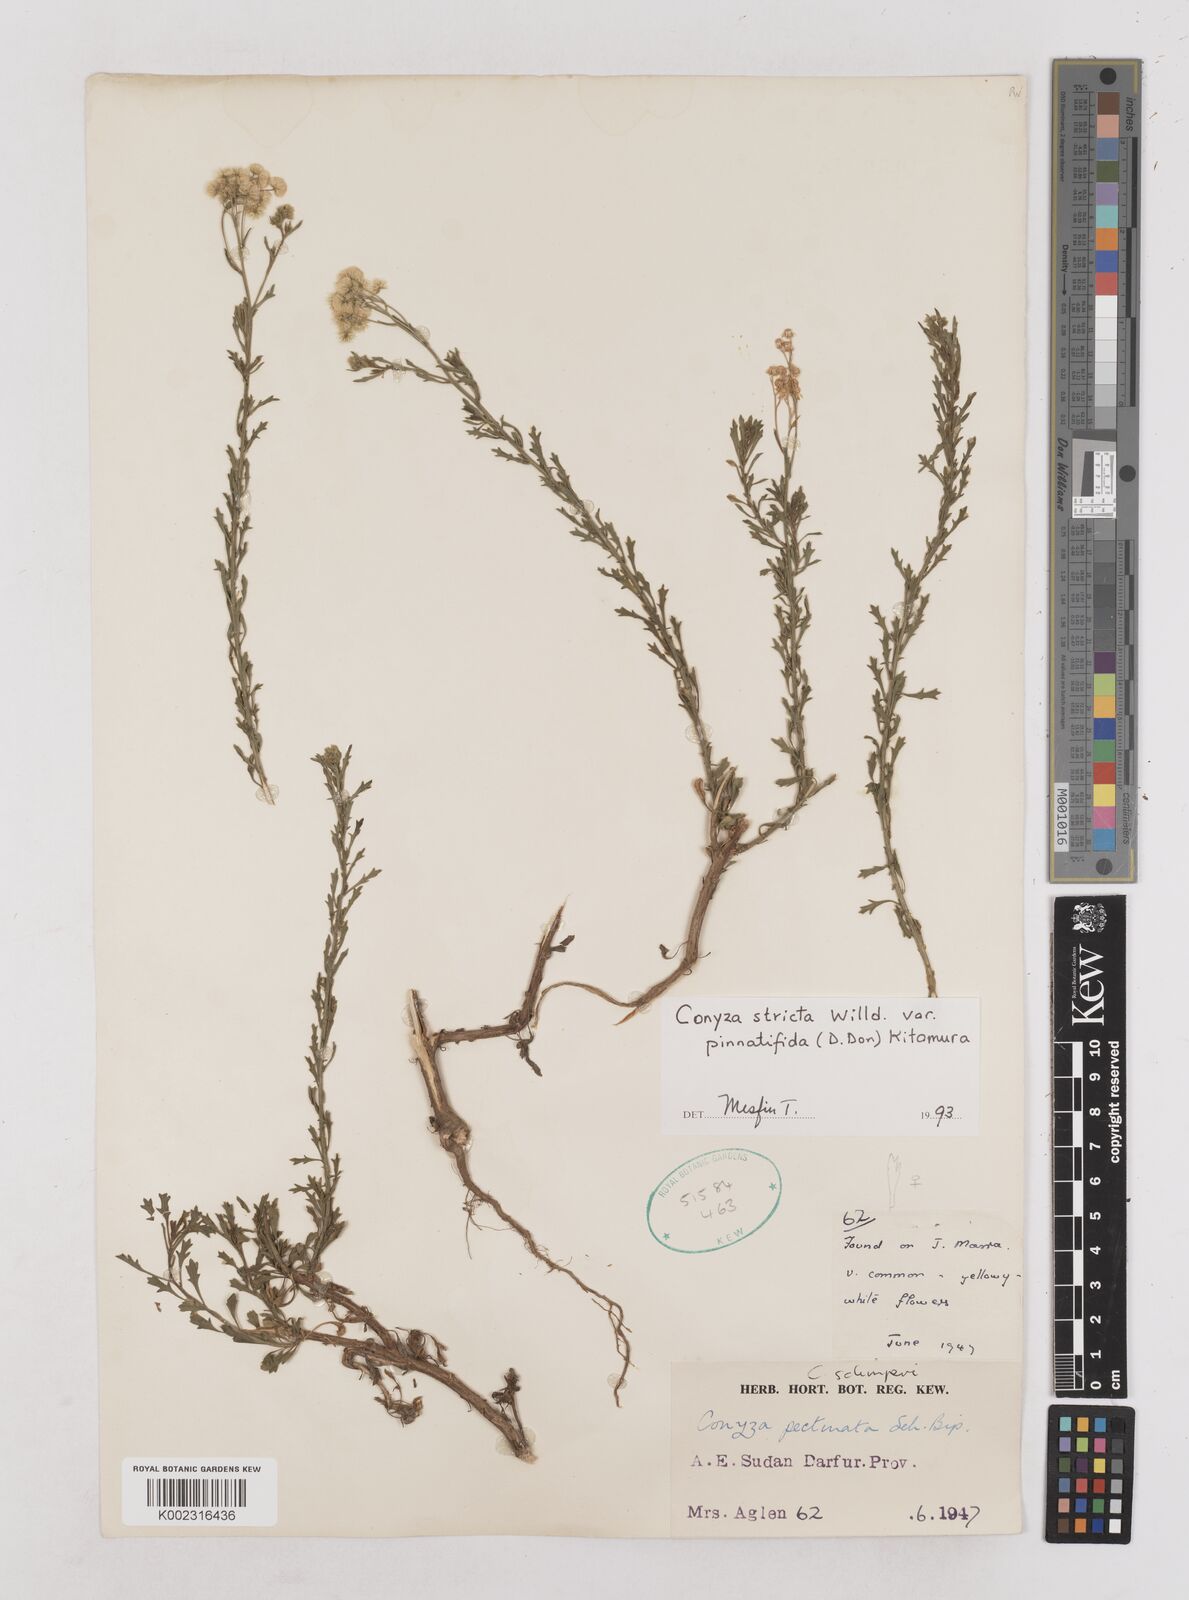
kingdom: Plantae
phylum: Tracheophyta
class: Magnoliopsida
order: Asterales
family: Asteraceae
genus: Nidorella
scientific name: Nidorella triloba
